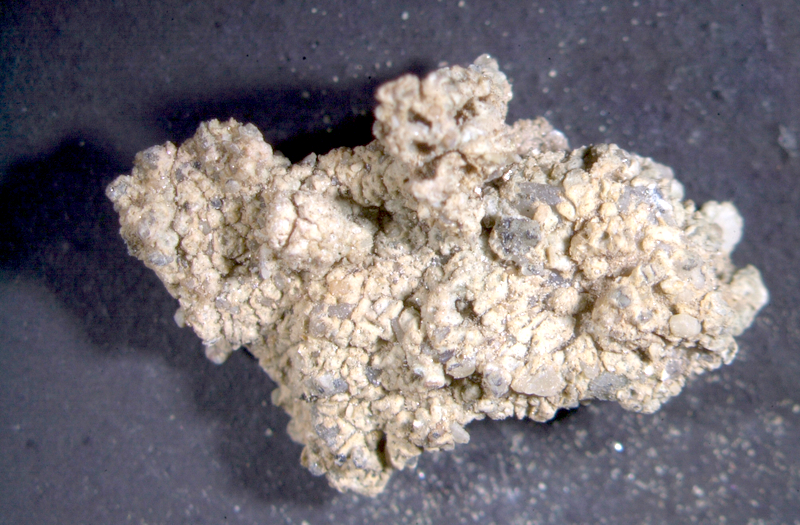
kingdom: Fungi
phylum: Ascomycota
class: Lecanoromycetes
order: Teloschistales
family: Teloschistaceae
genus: Caloplaca
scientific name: Caloplaca
